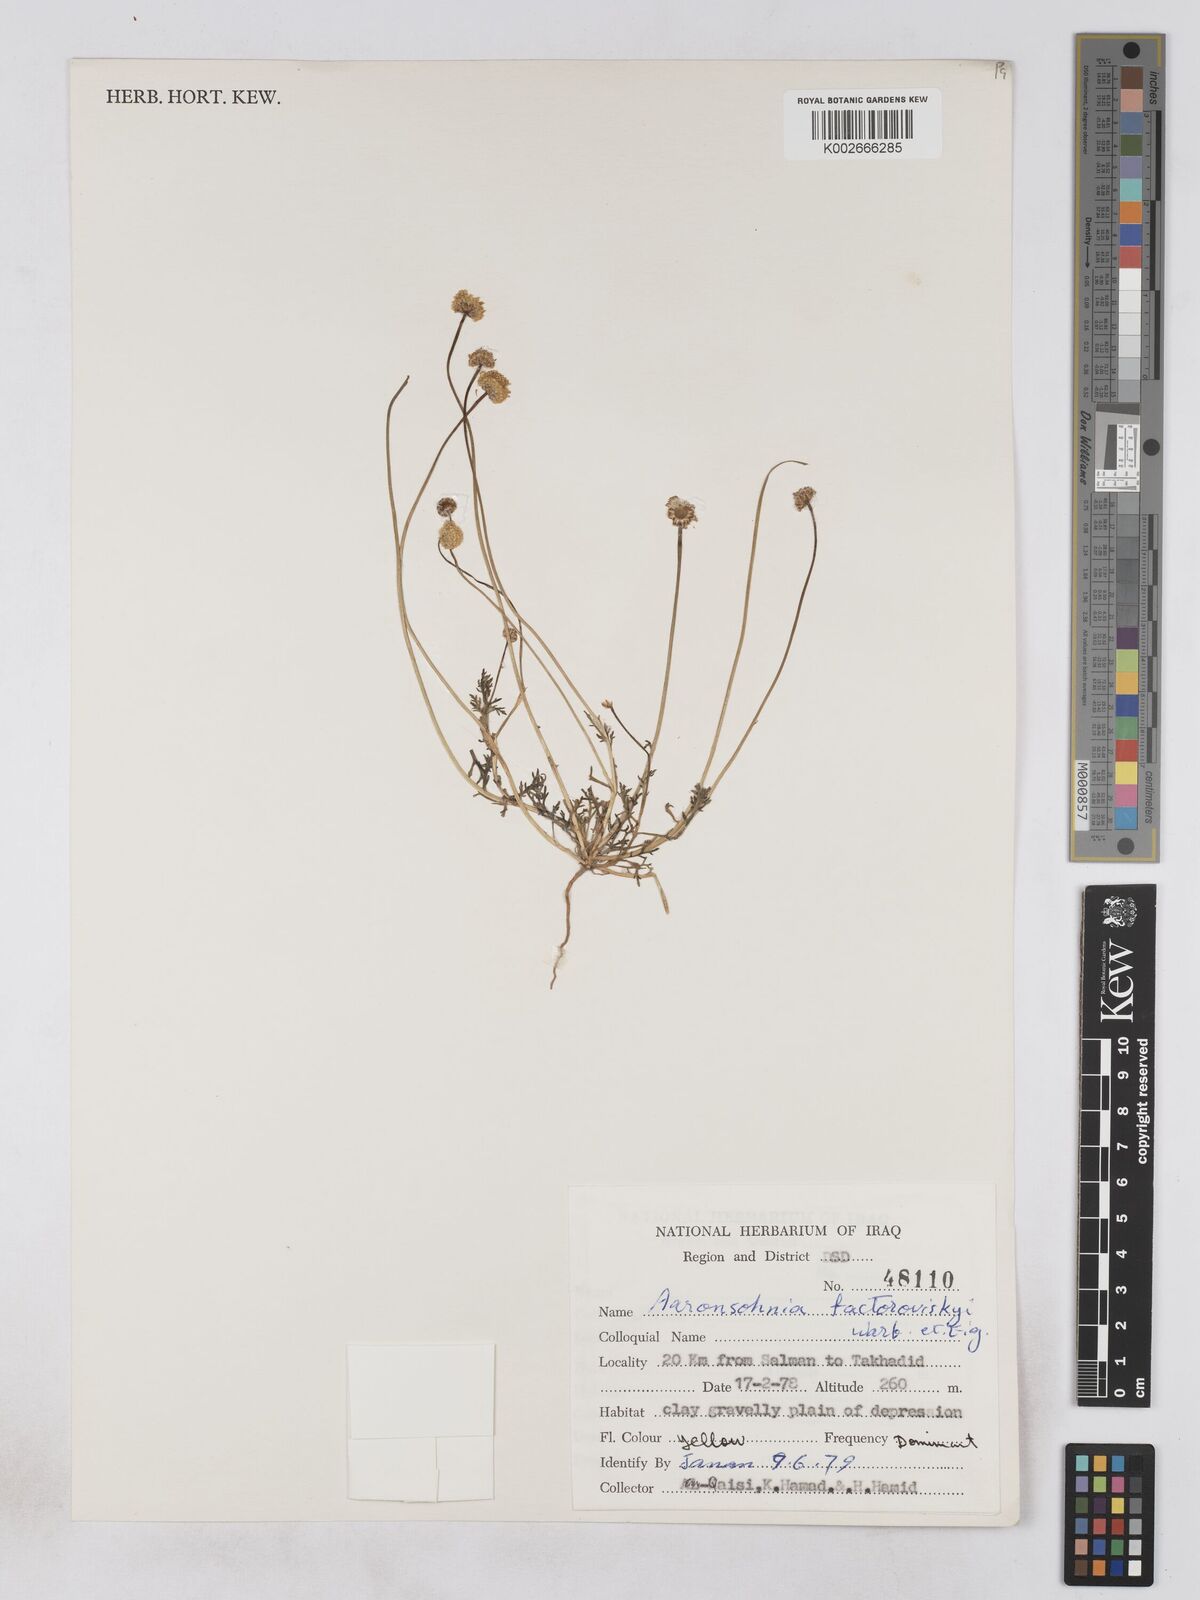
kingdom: Plantae
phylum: Tracheophyta
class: Magnoliopsida
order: Asterales
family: Asteraceae
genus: Otoglyphis
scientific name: Otoglyphis factorovskyi
